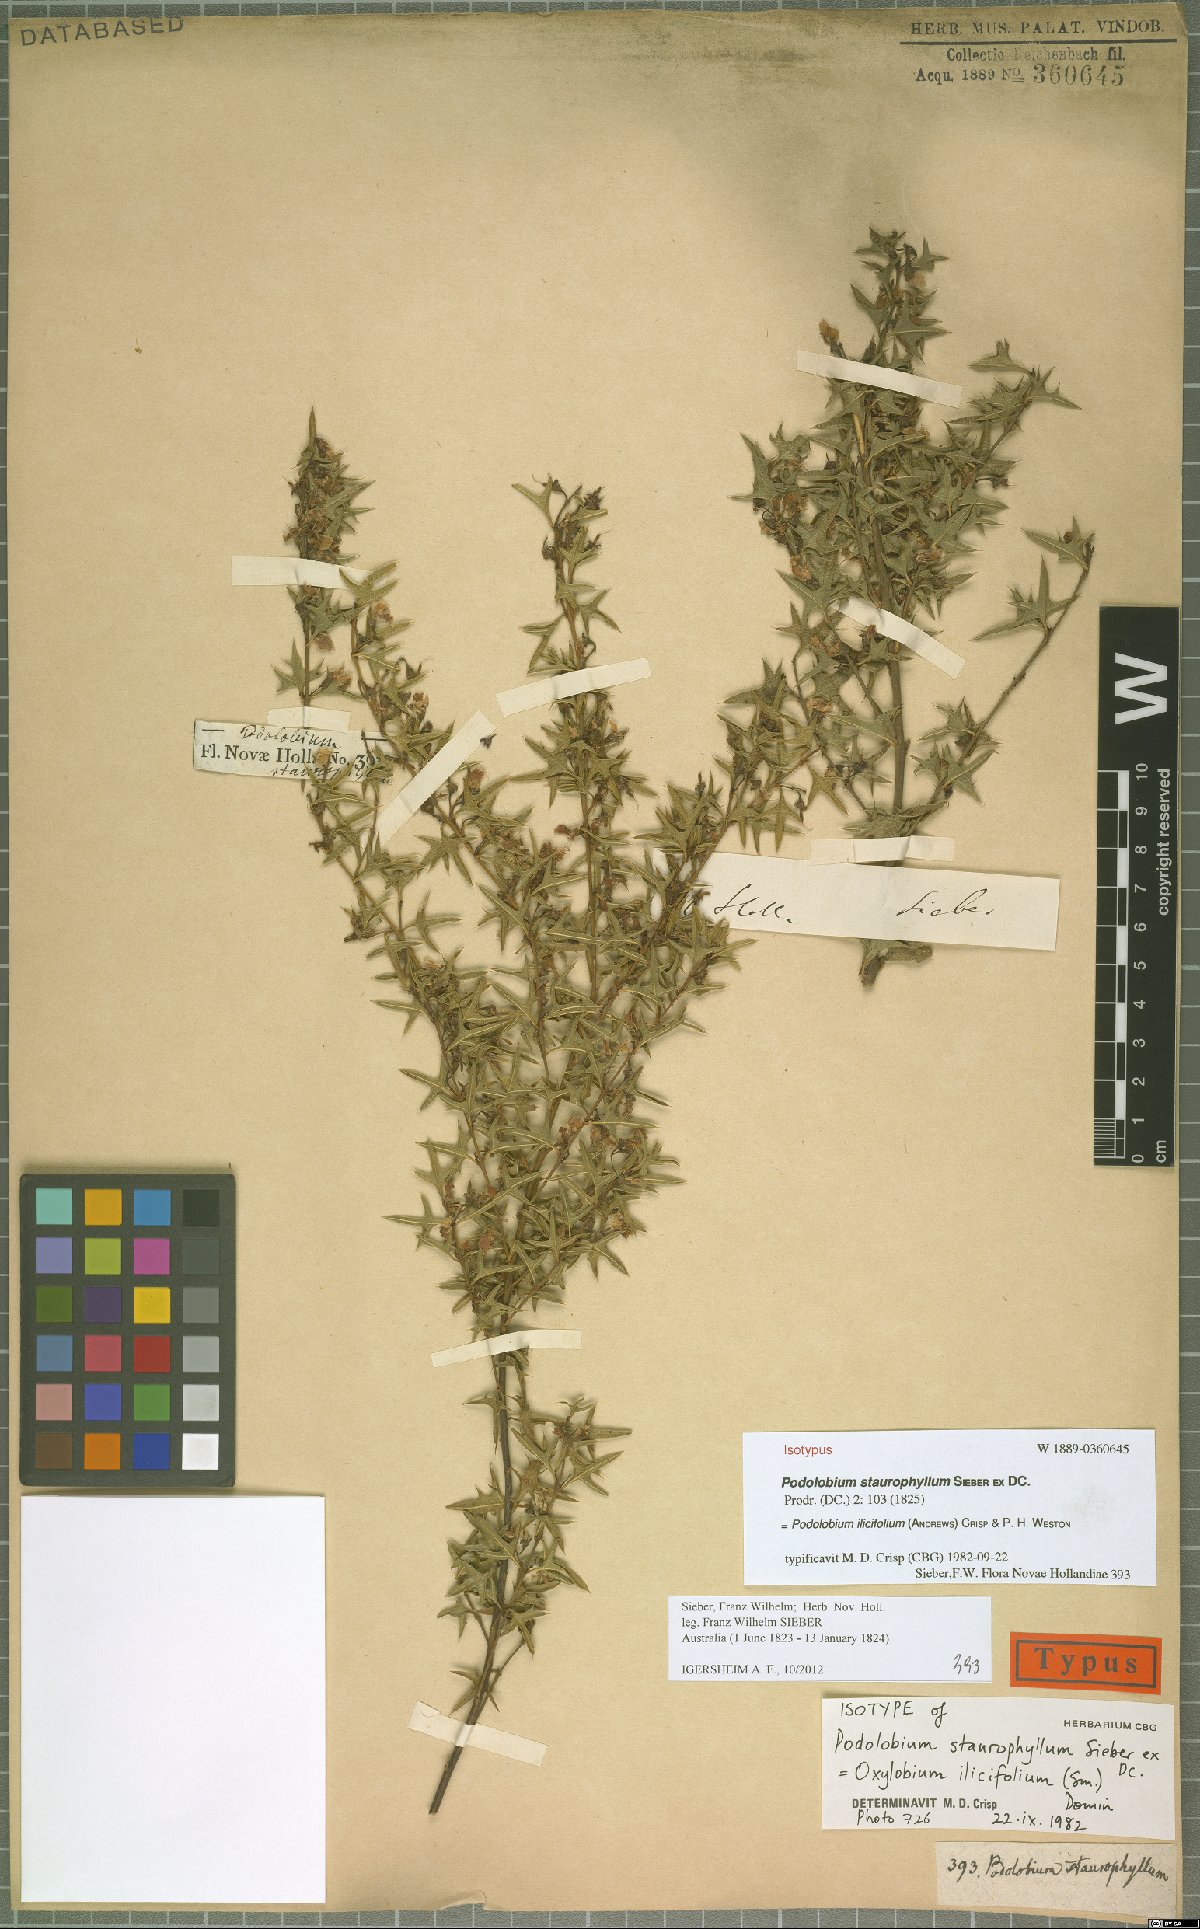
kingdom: Plantae
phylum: Tracheophyta
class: Magnoliopsida
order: Fabales
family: Fabaceae
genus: Podolobium
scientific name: Podolobium ilicifolium
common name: Native holly
